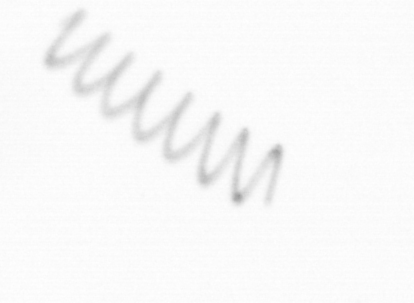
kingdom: Chromista
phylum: Ochrophyta
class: Bacillariophyceae
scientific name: Bacillariophyceae
